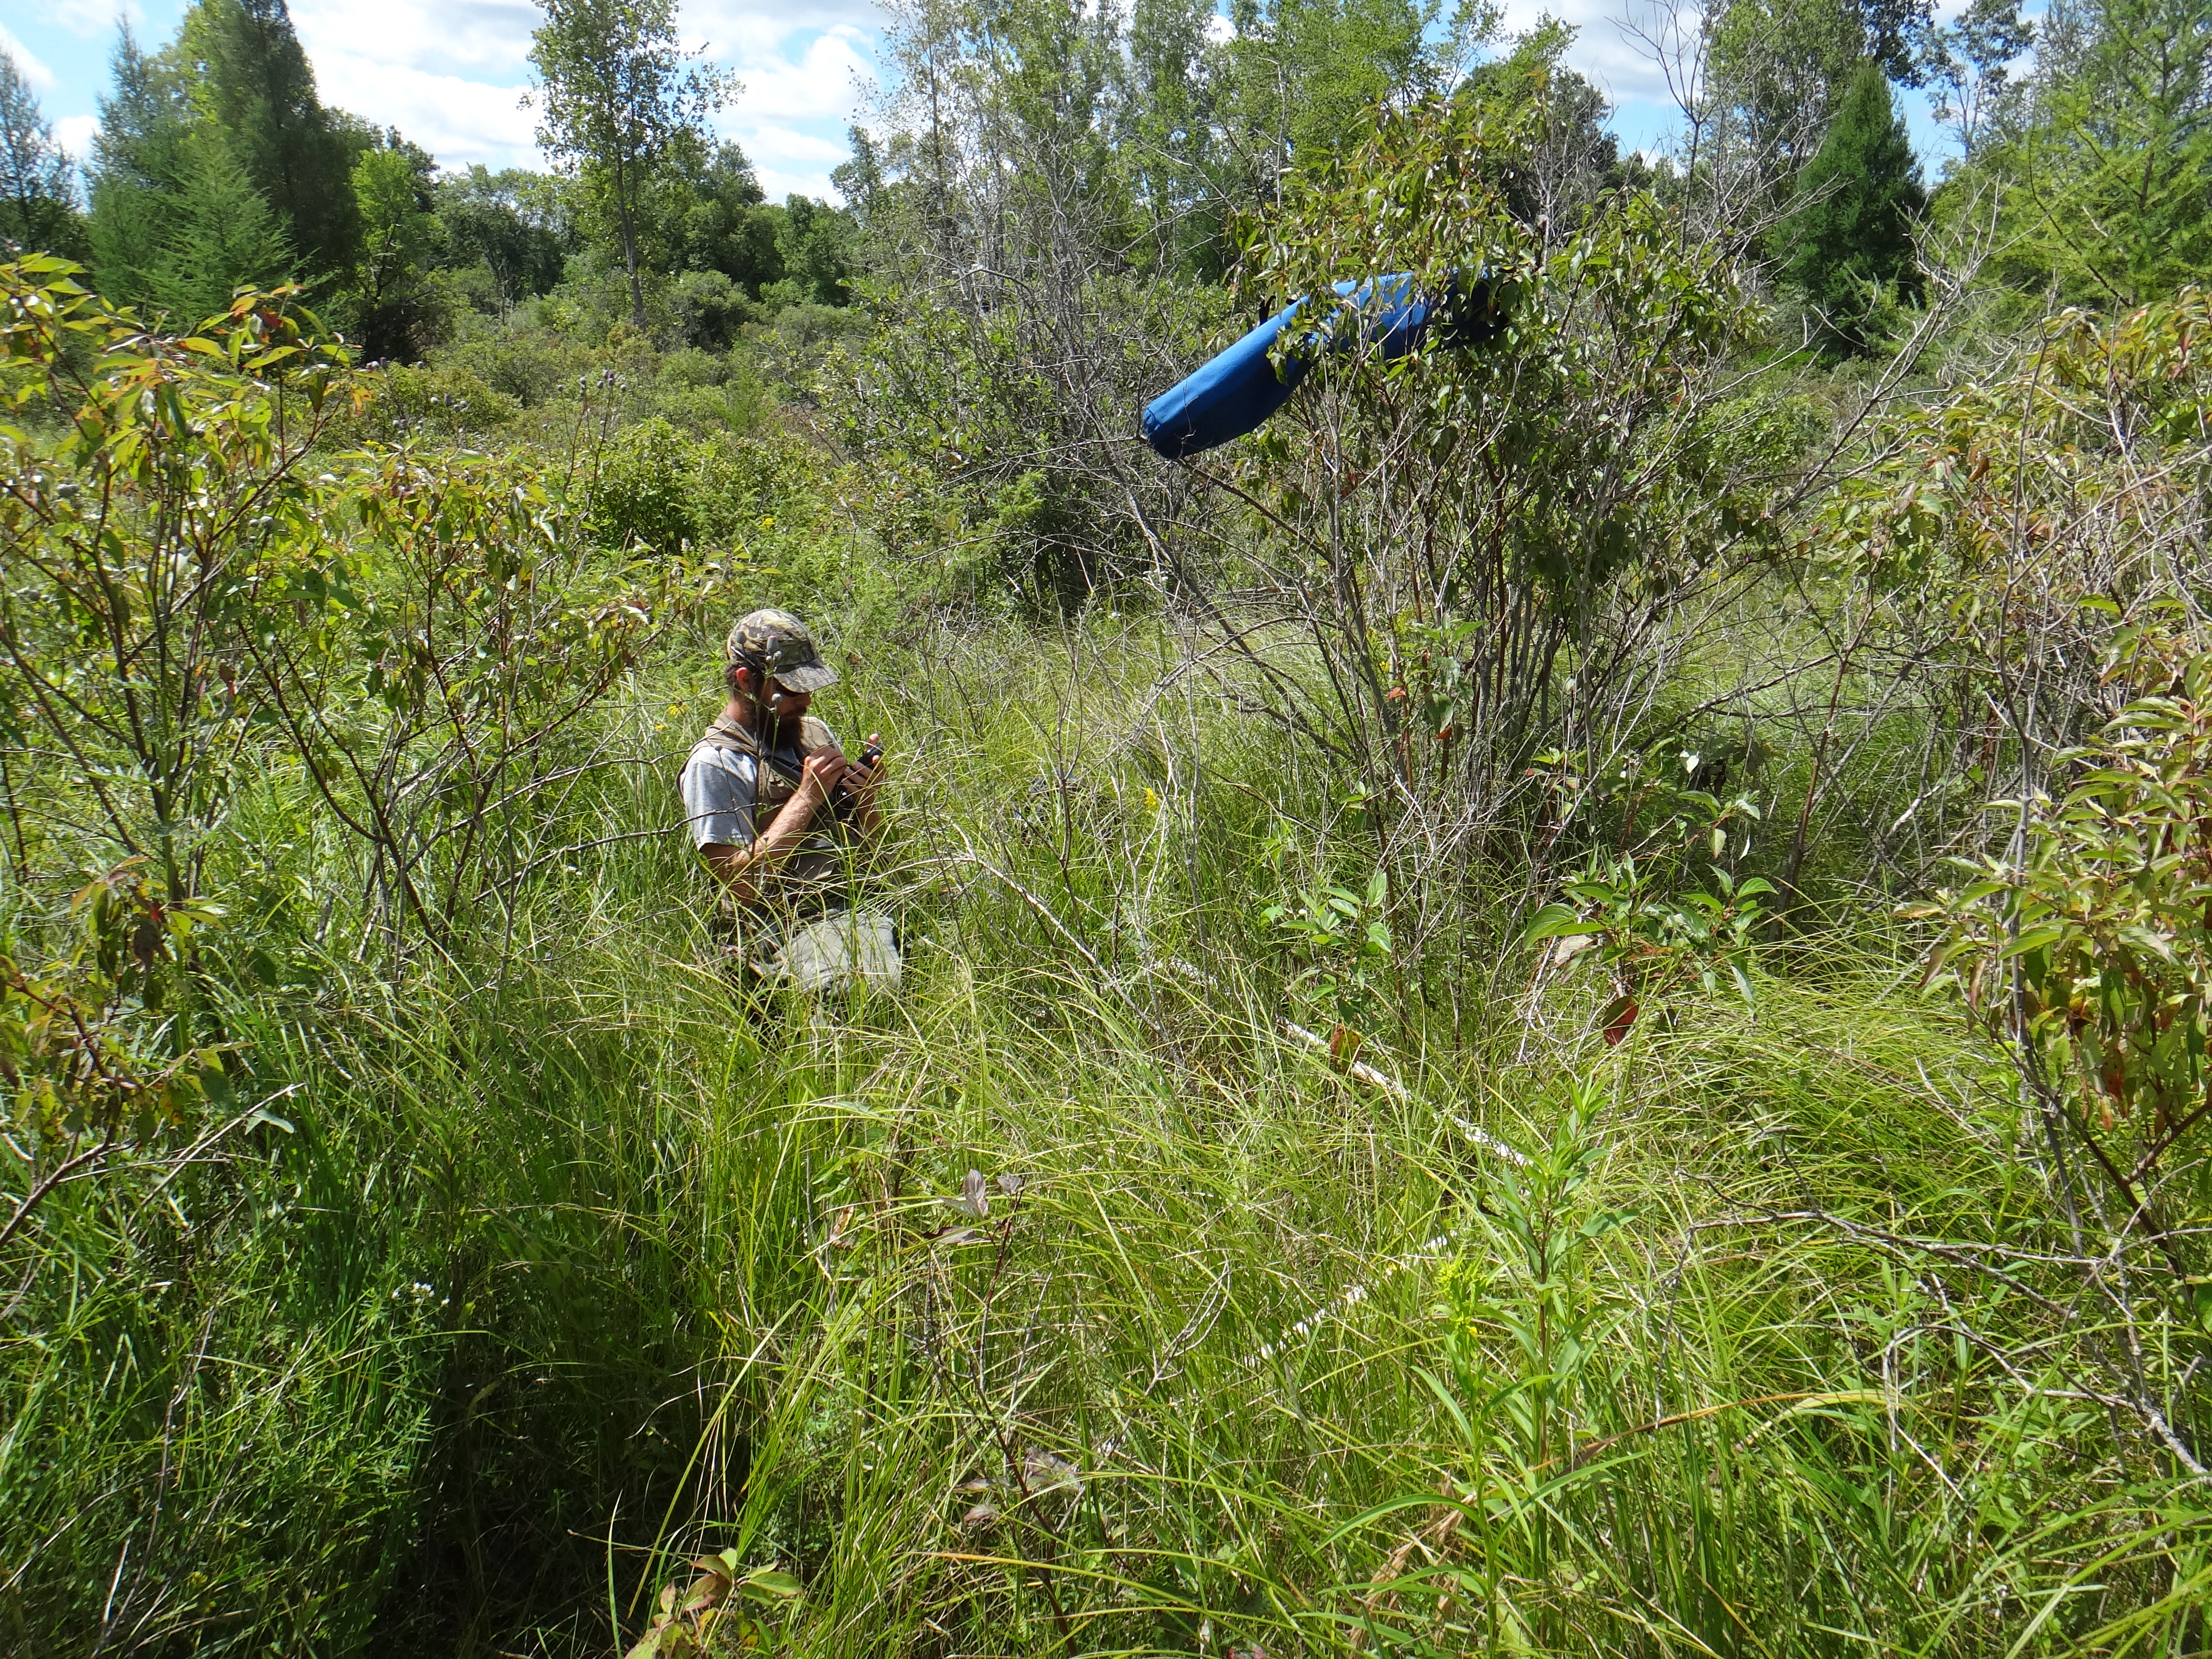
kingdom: Plantae
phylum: Tracheophyta
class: Magnoliopsida
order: Asterales
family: Asteraceae
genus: Eutrochium
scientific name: Eutrochium maculatum
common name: Spotted joe pye weed
